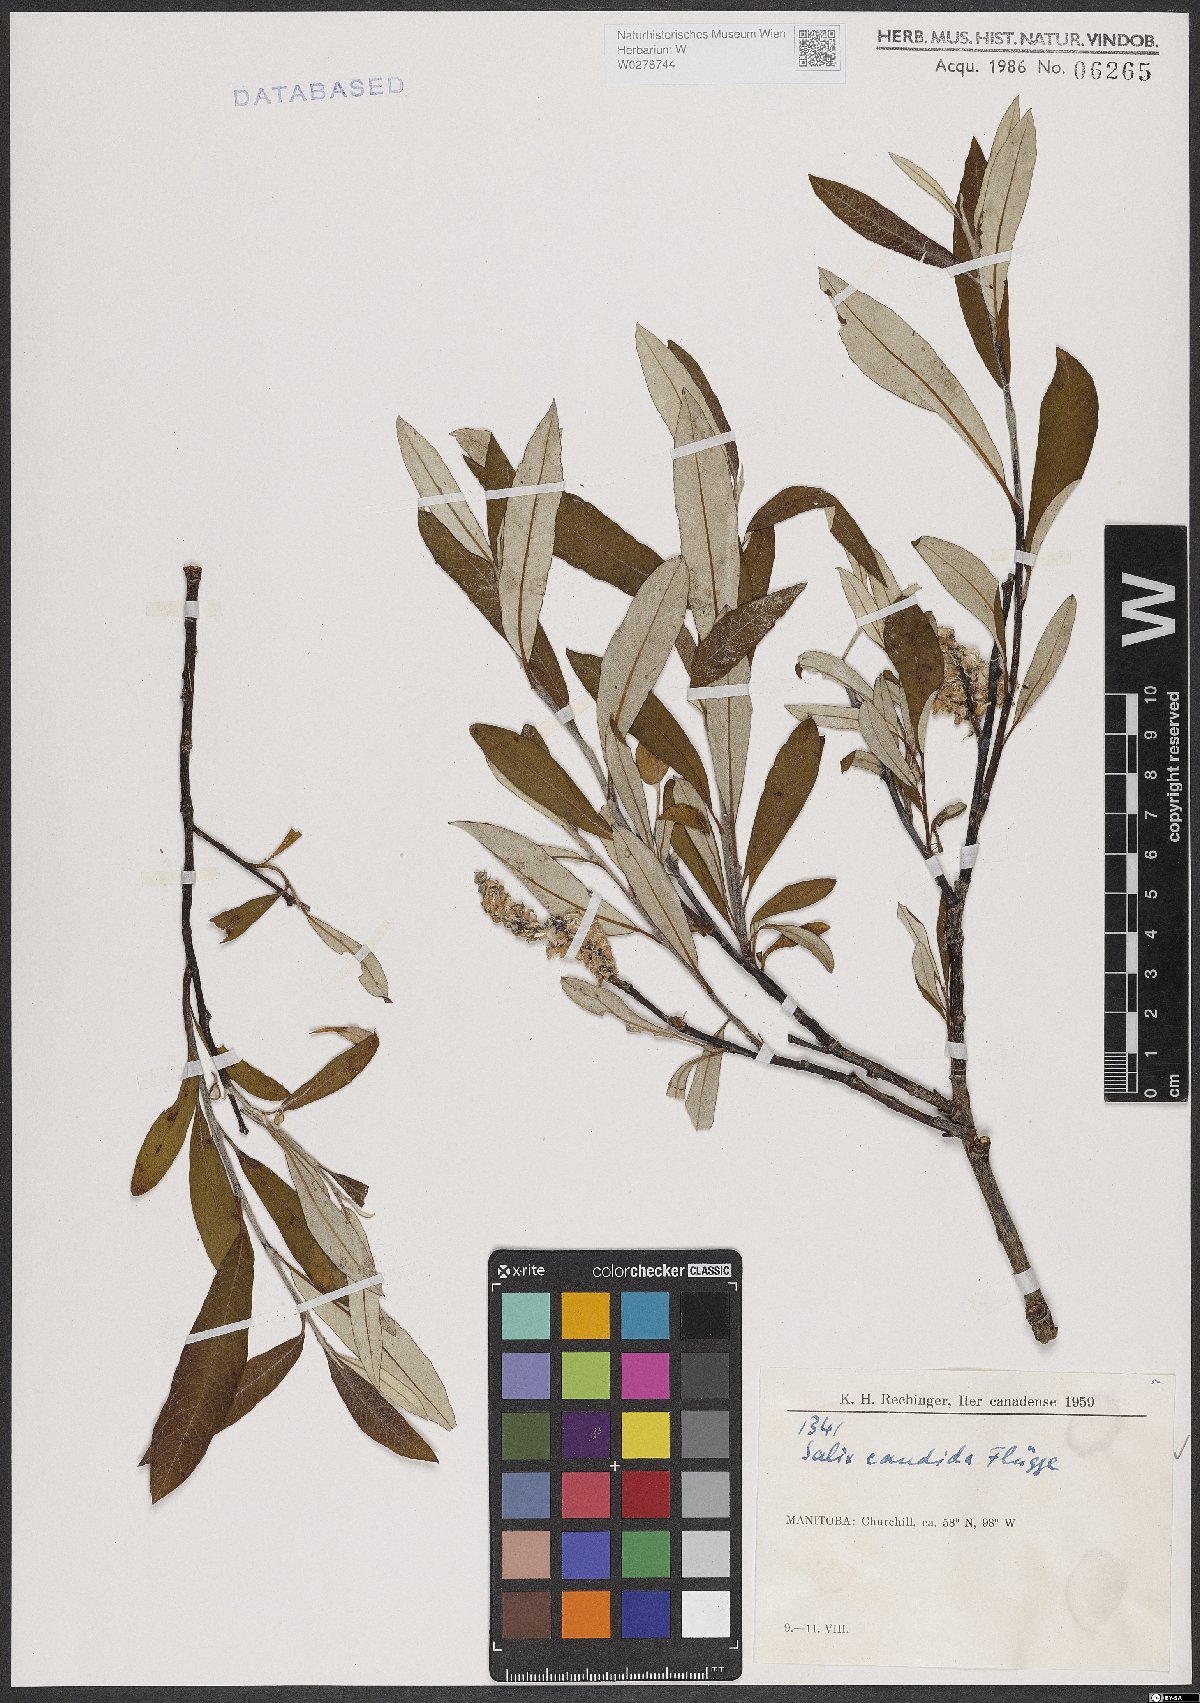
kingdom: Plantae
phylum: Tracheophyta
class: Magnoliopsida
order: Malpighiales
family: Salicaceae
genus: Salix
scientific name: Salix candida
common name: Hoary willow
